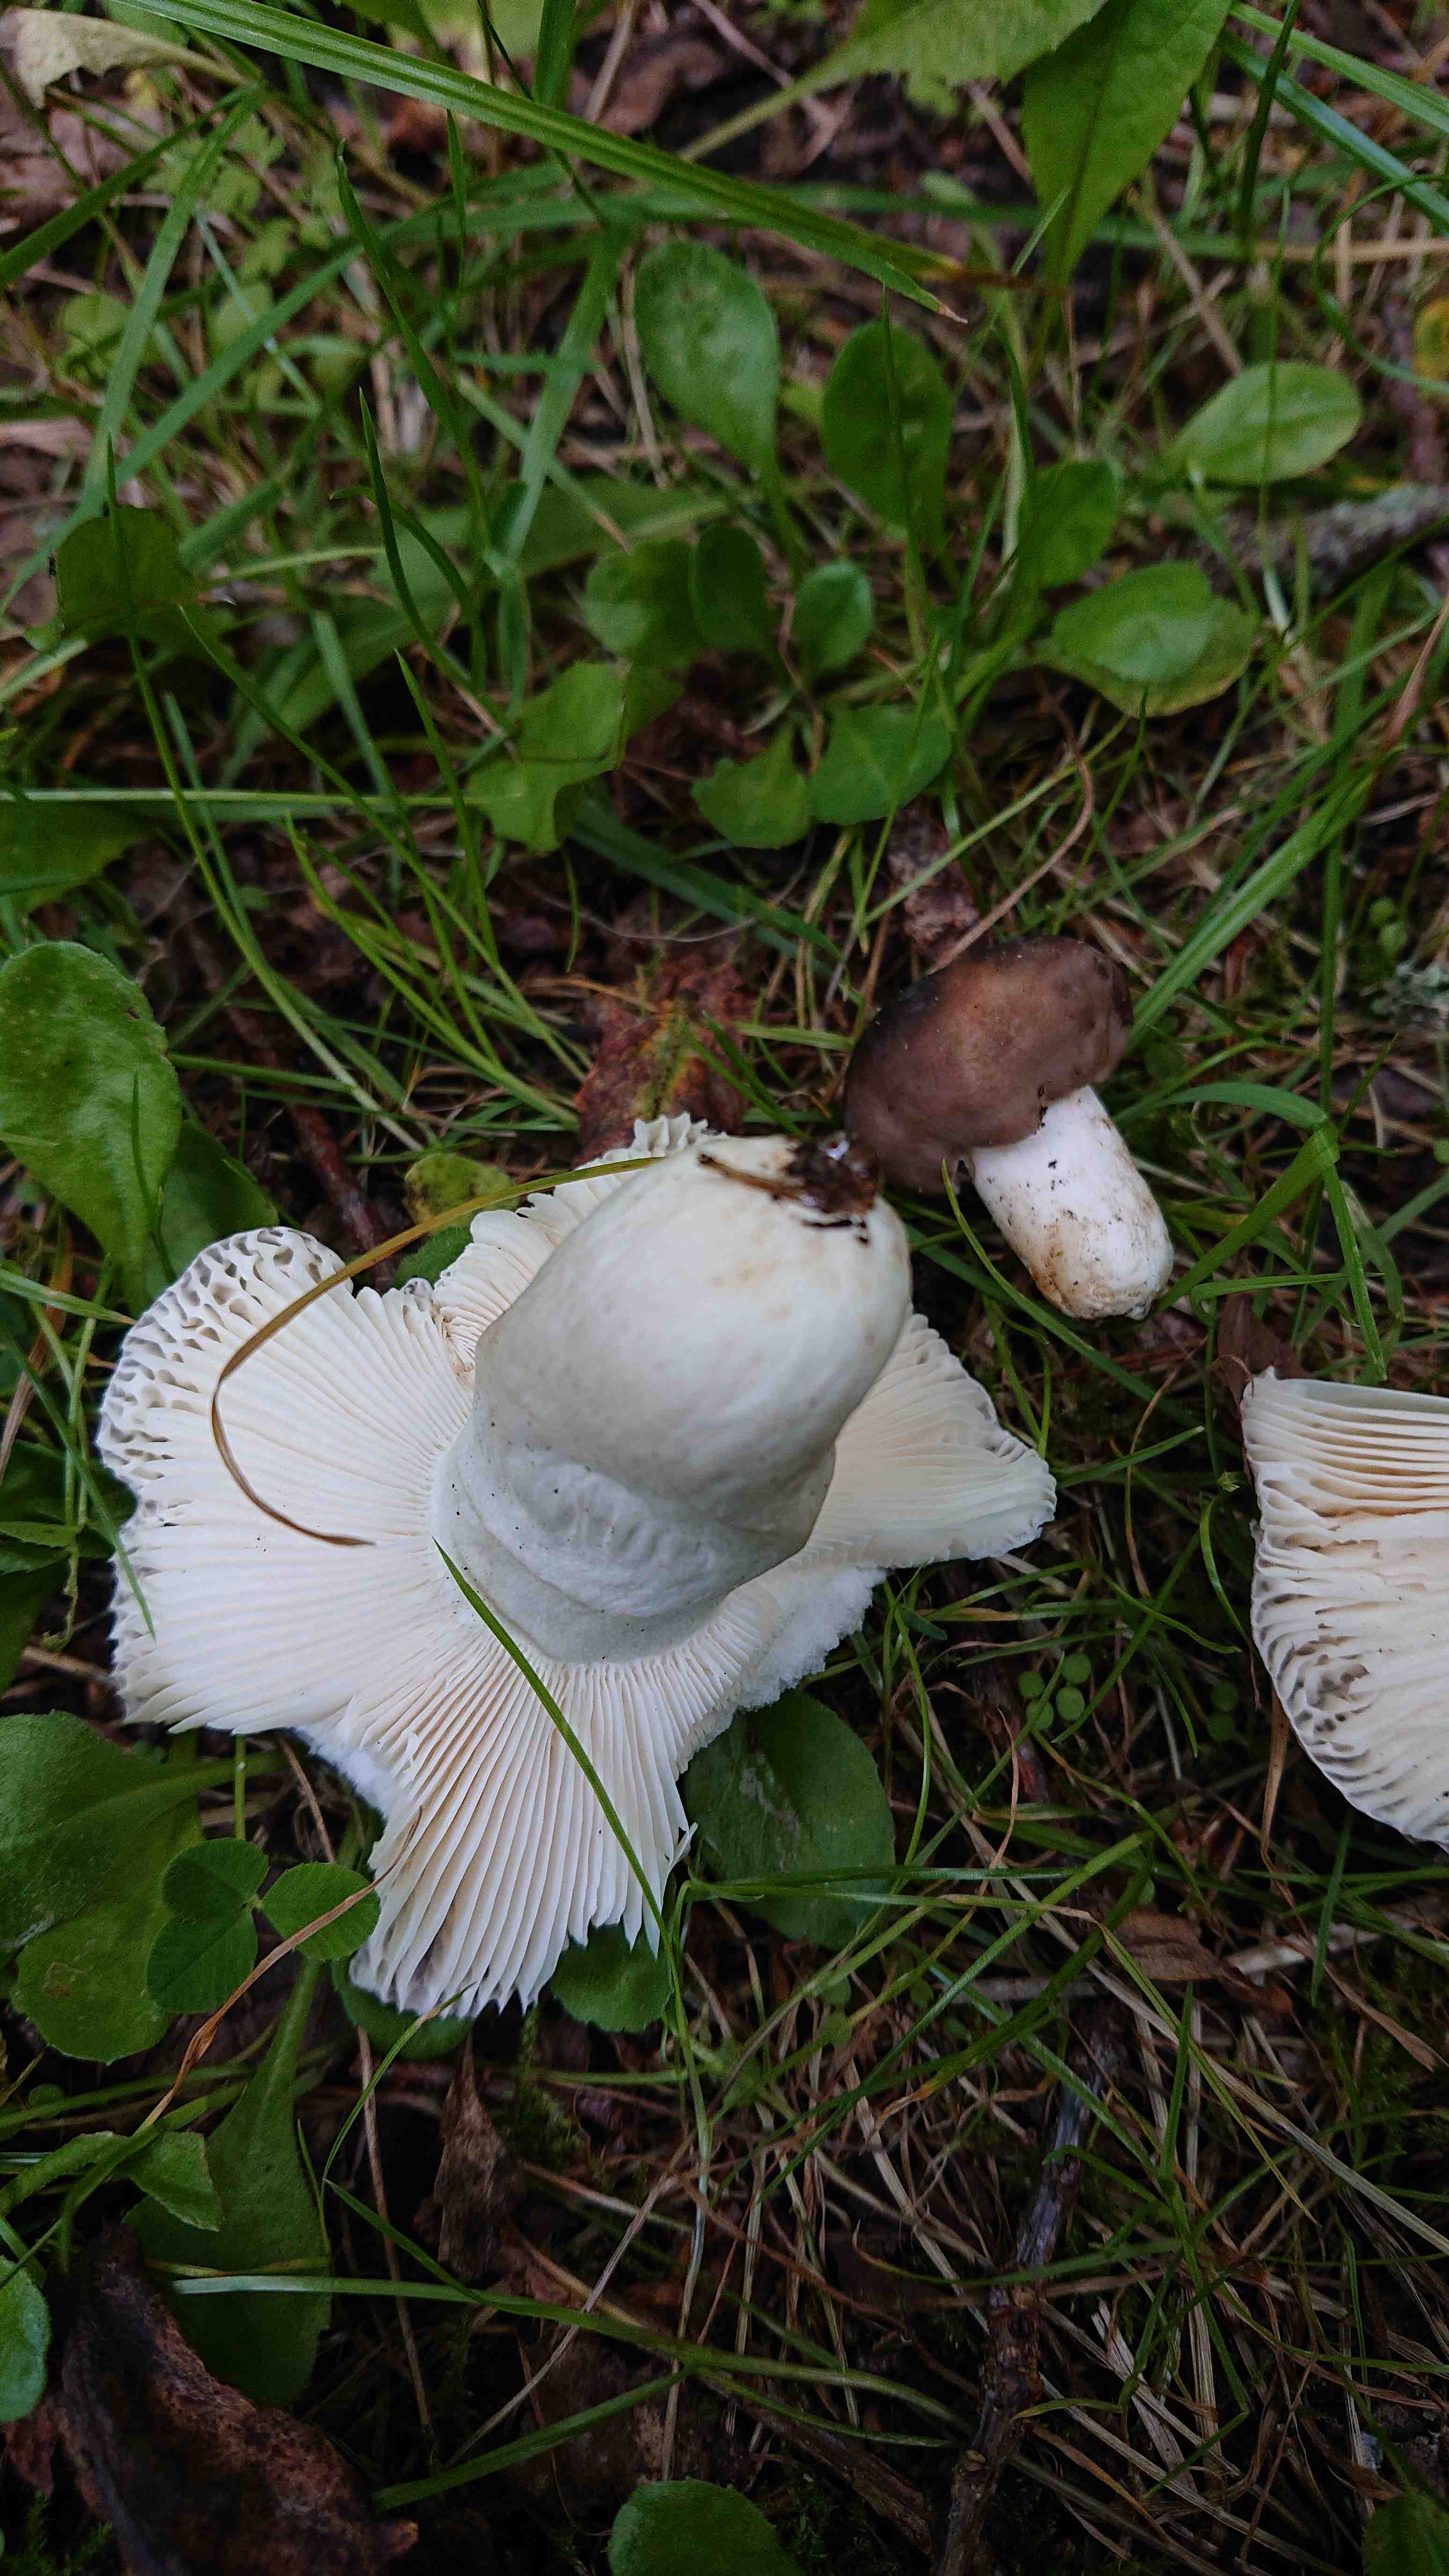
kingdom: Fungi
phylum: Basidiomycota
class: Agaricomycetes
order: Russulales
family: Russulaceae
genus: Russula
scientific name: Russula
